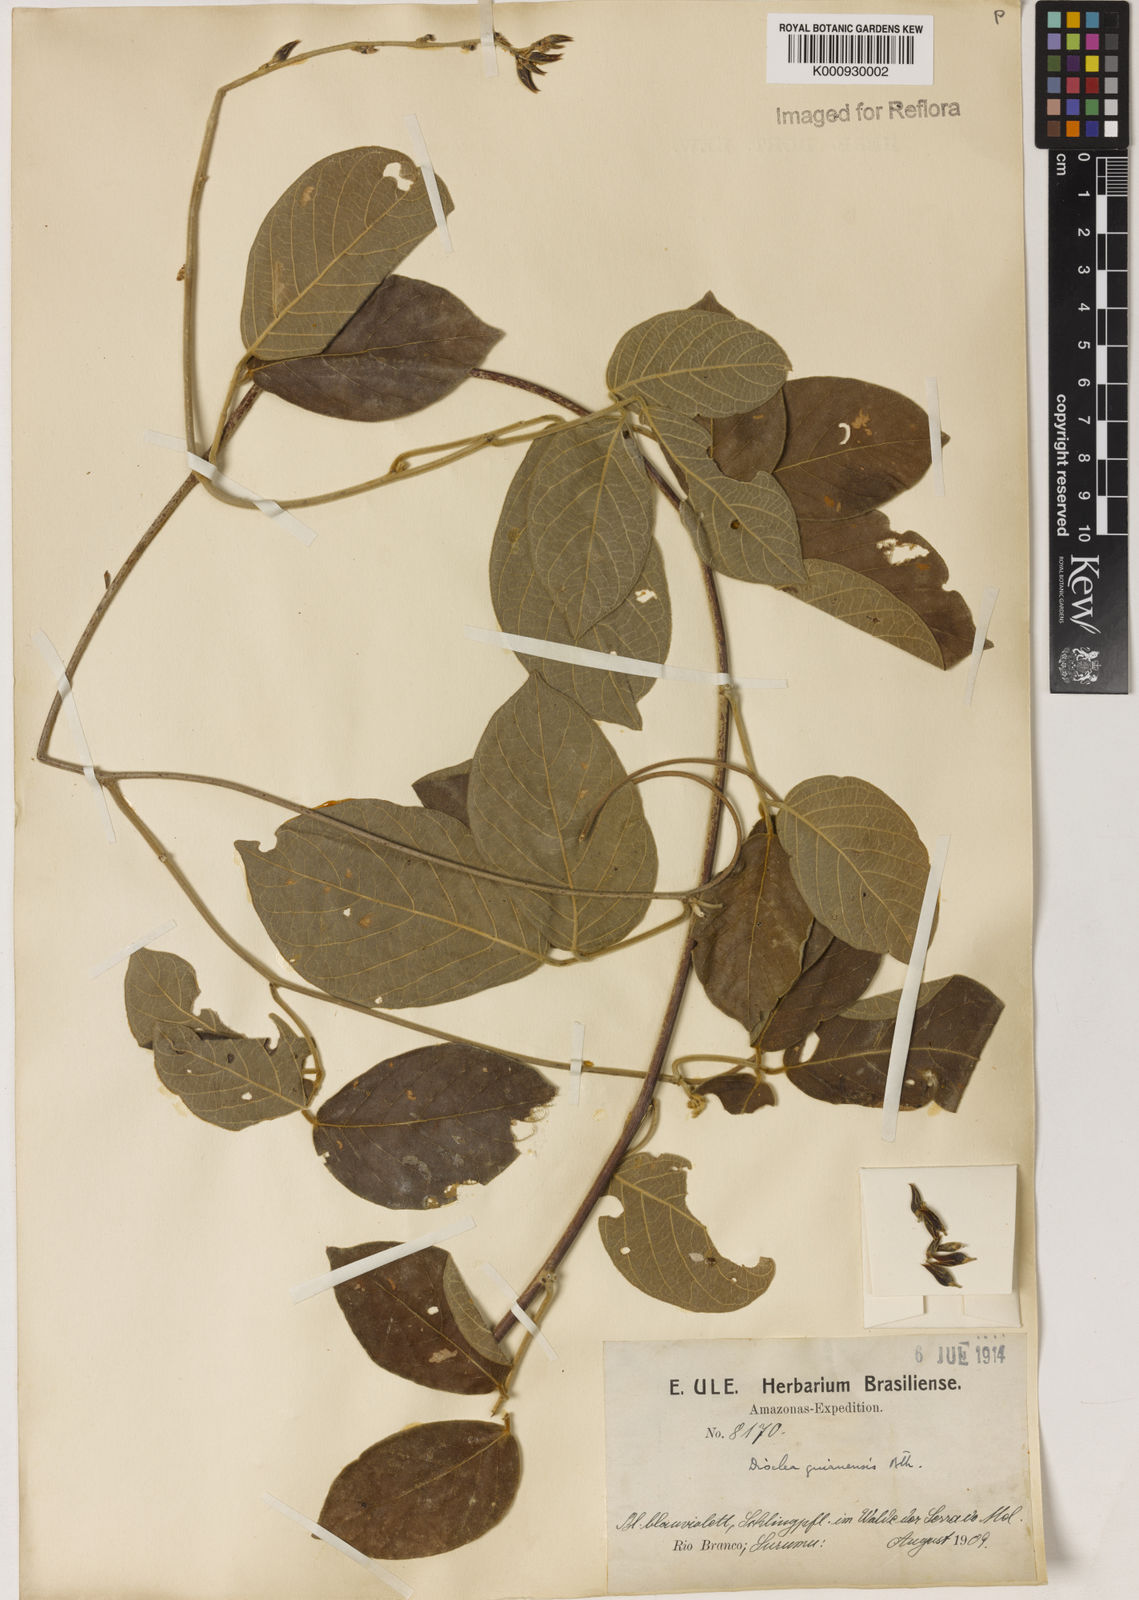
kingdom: Plantae
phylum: Tracheophyta
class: Magnoliopsida
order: Fabales
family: Fabaceae
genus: Dioclea
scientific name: Dioclea guianensis
